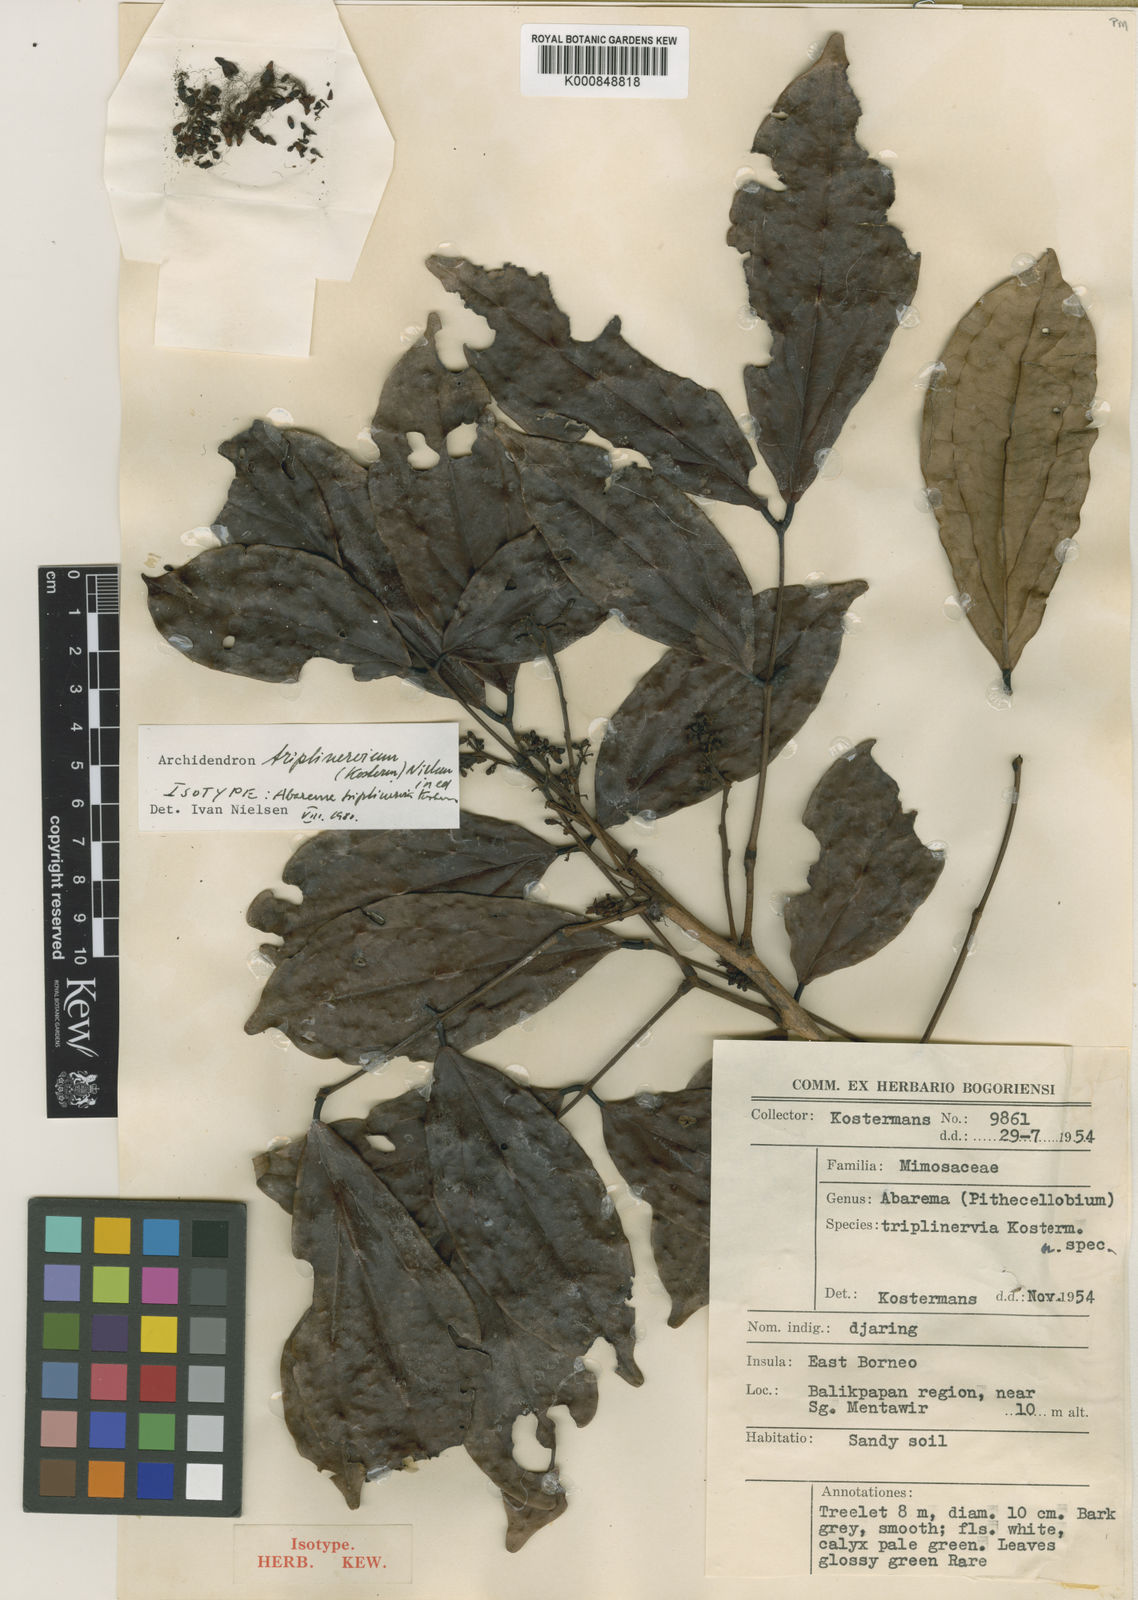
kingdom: Plantae
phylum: Tracheophyta
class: Magnoliopsida
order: Fabales
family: Fabaceae
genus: Archidendron
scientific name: Archidendron triplinervium
